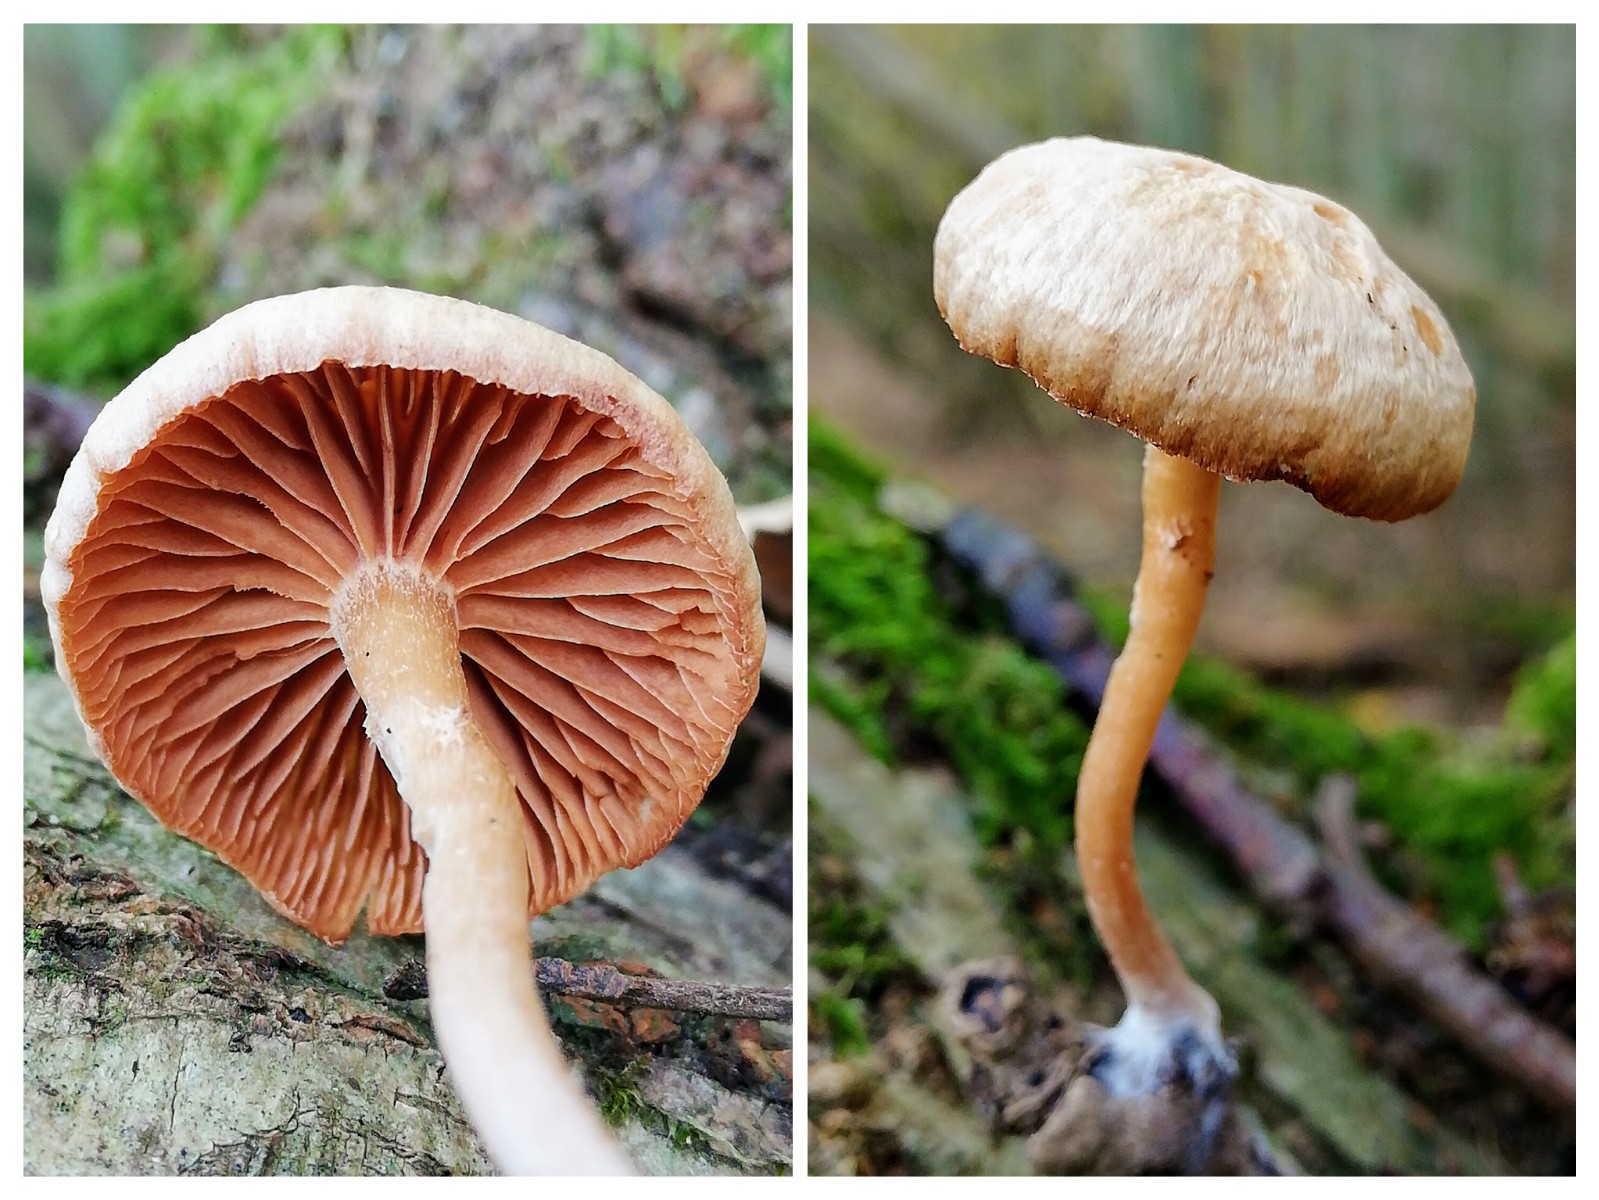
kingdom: Fungi
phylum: Basidiomycota
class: Agaricomycetes
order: Agaricales
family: Tubariaceae
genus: Tubaria
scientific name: Tubaria furfuracea
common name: kliddet fnughat
